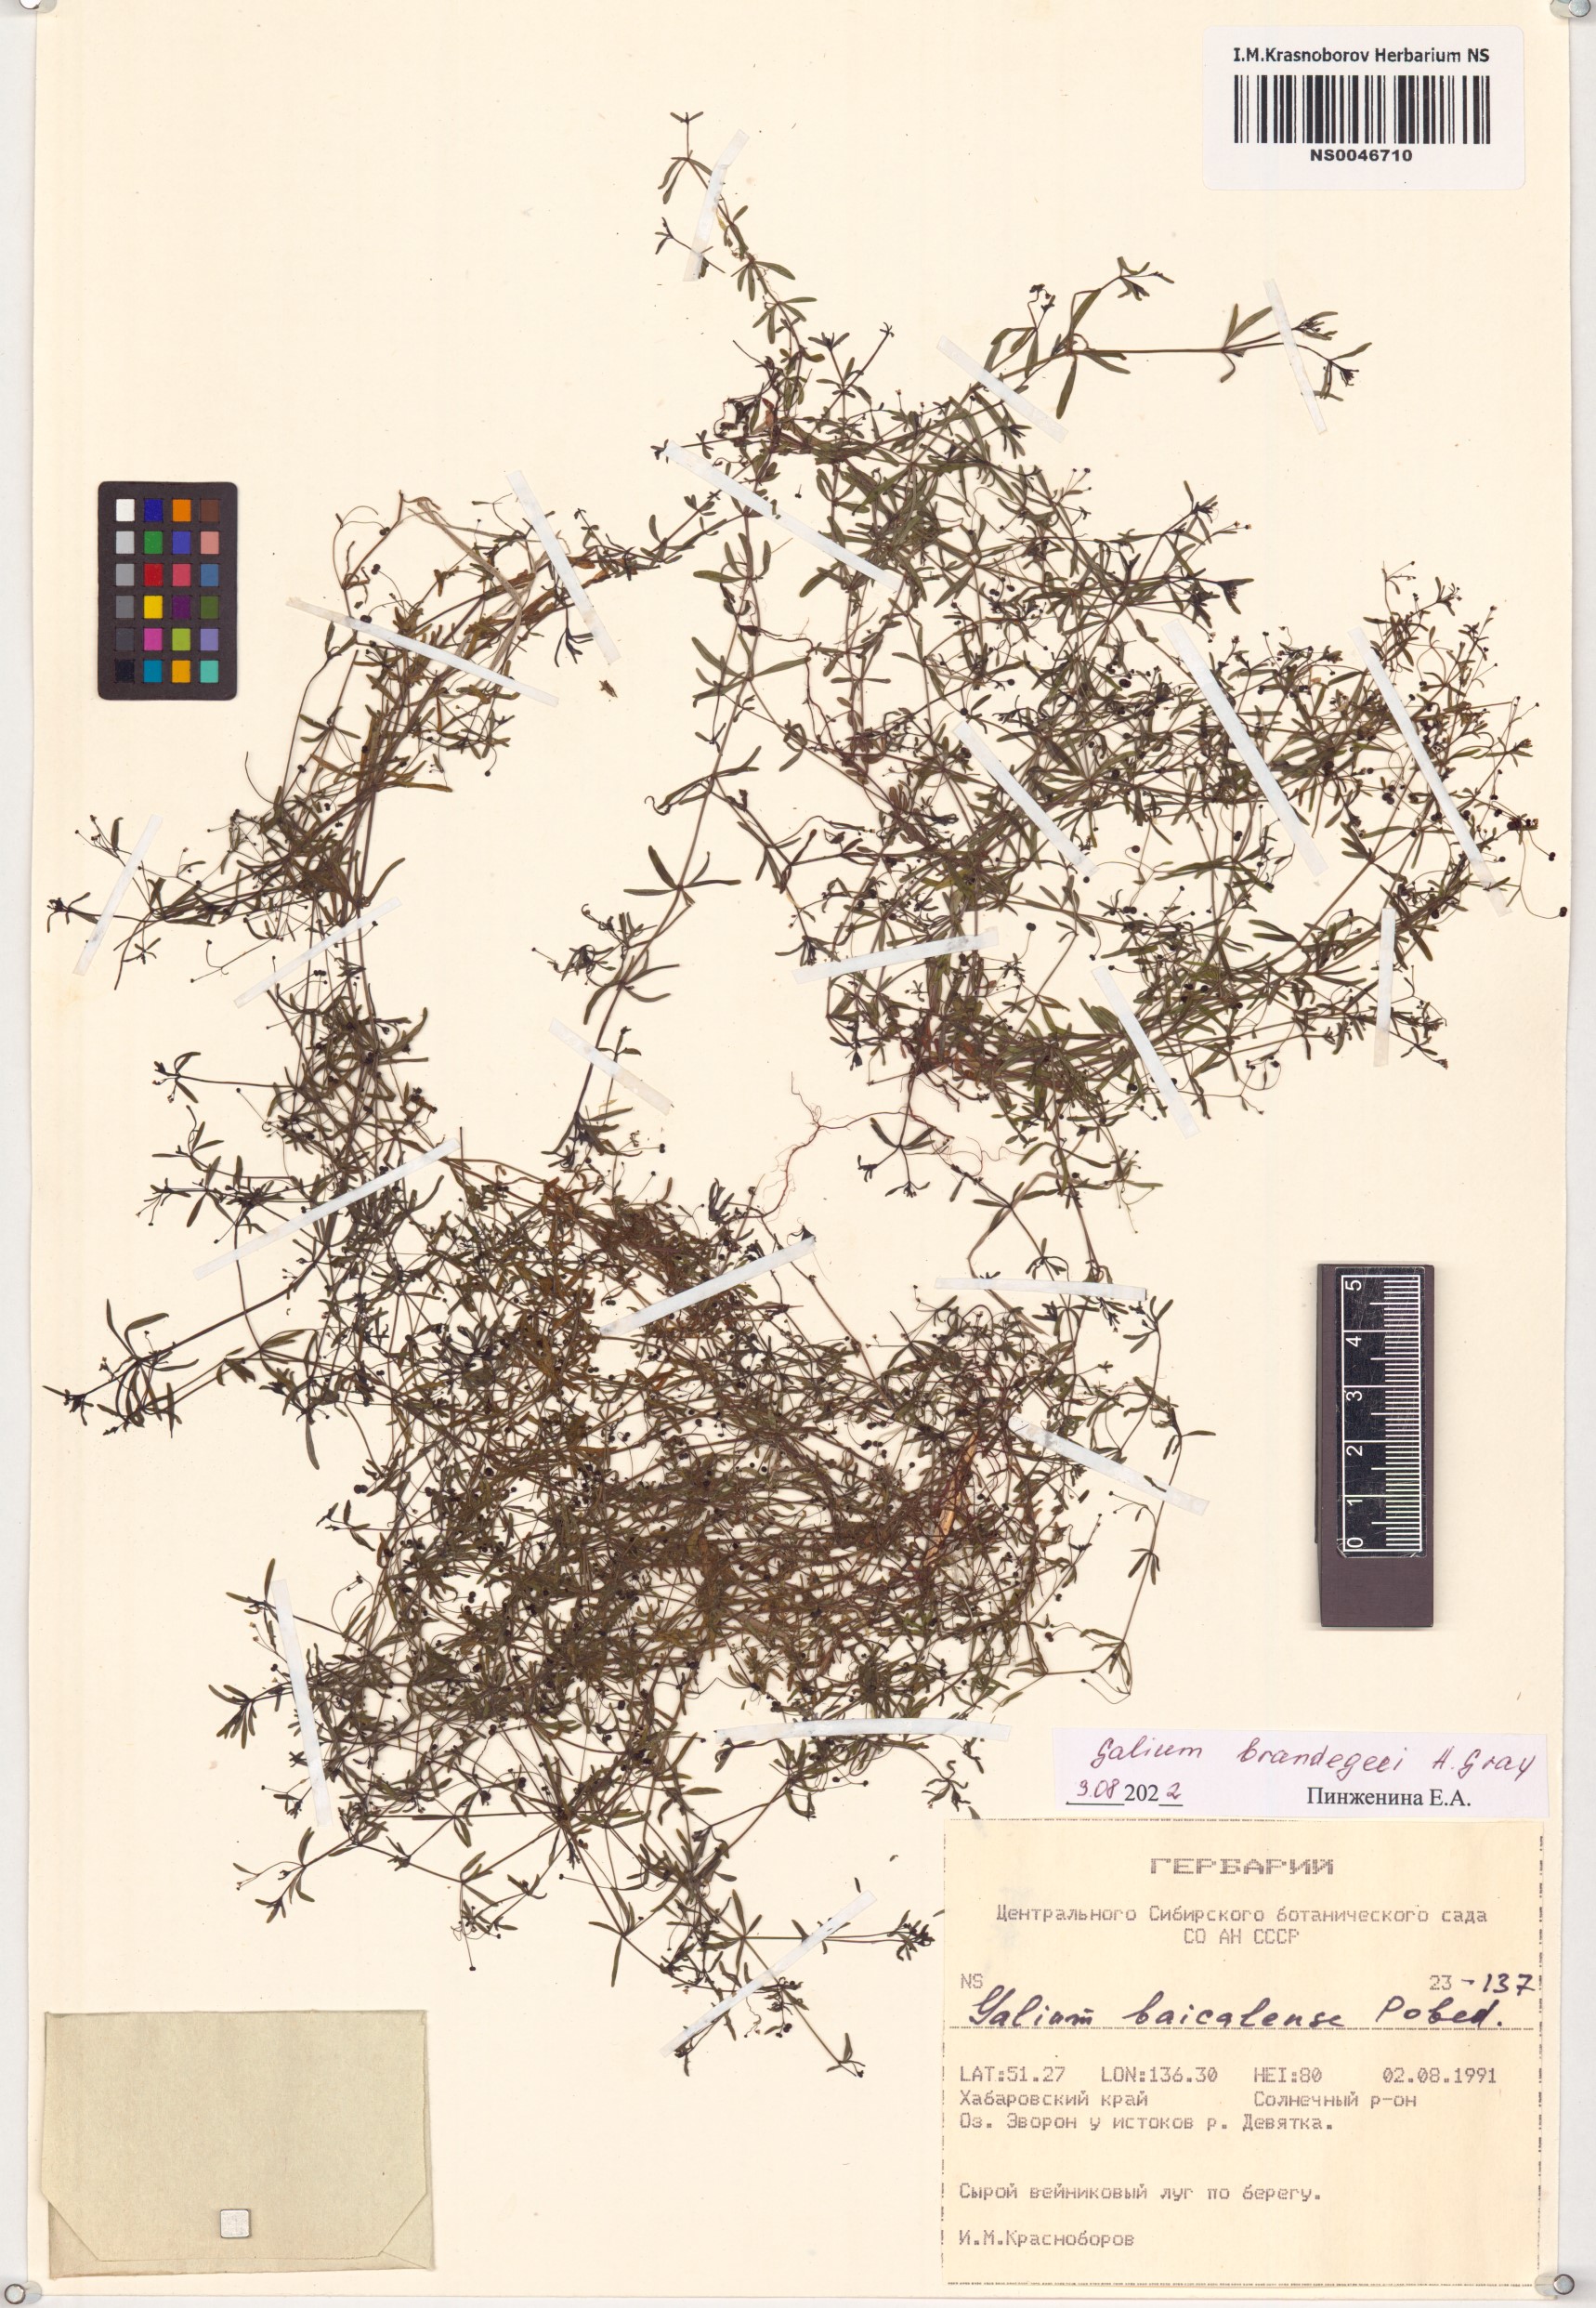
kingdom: Plantae
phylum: Tracheophyta
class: Magnoliopsida
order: Gentianales
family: Rubiaceae
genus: Galium
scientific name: Galium trifidum
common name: Small bedstraw
